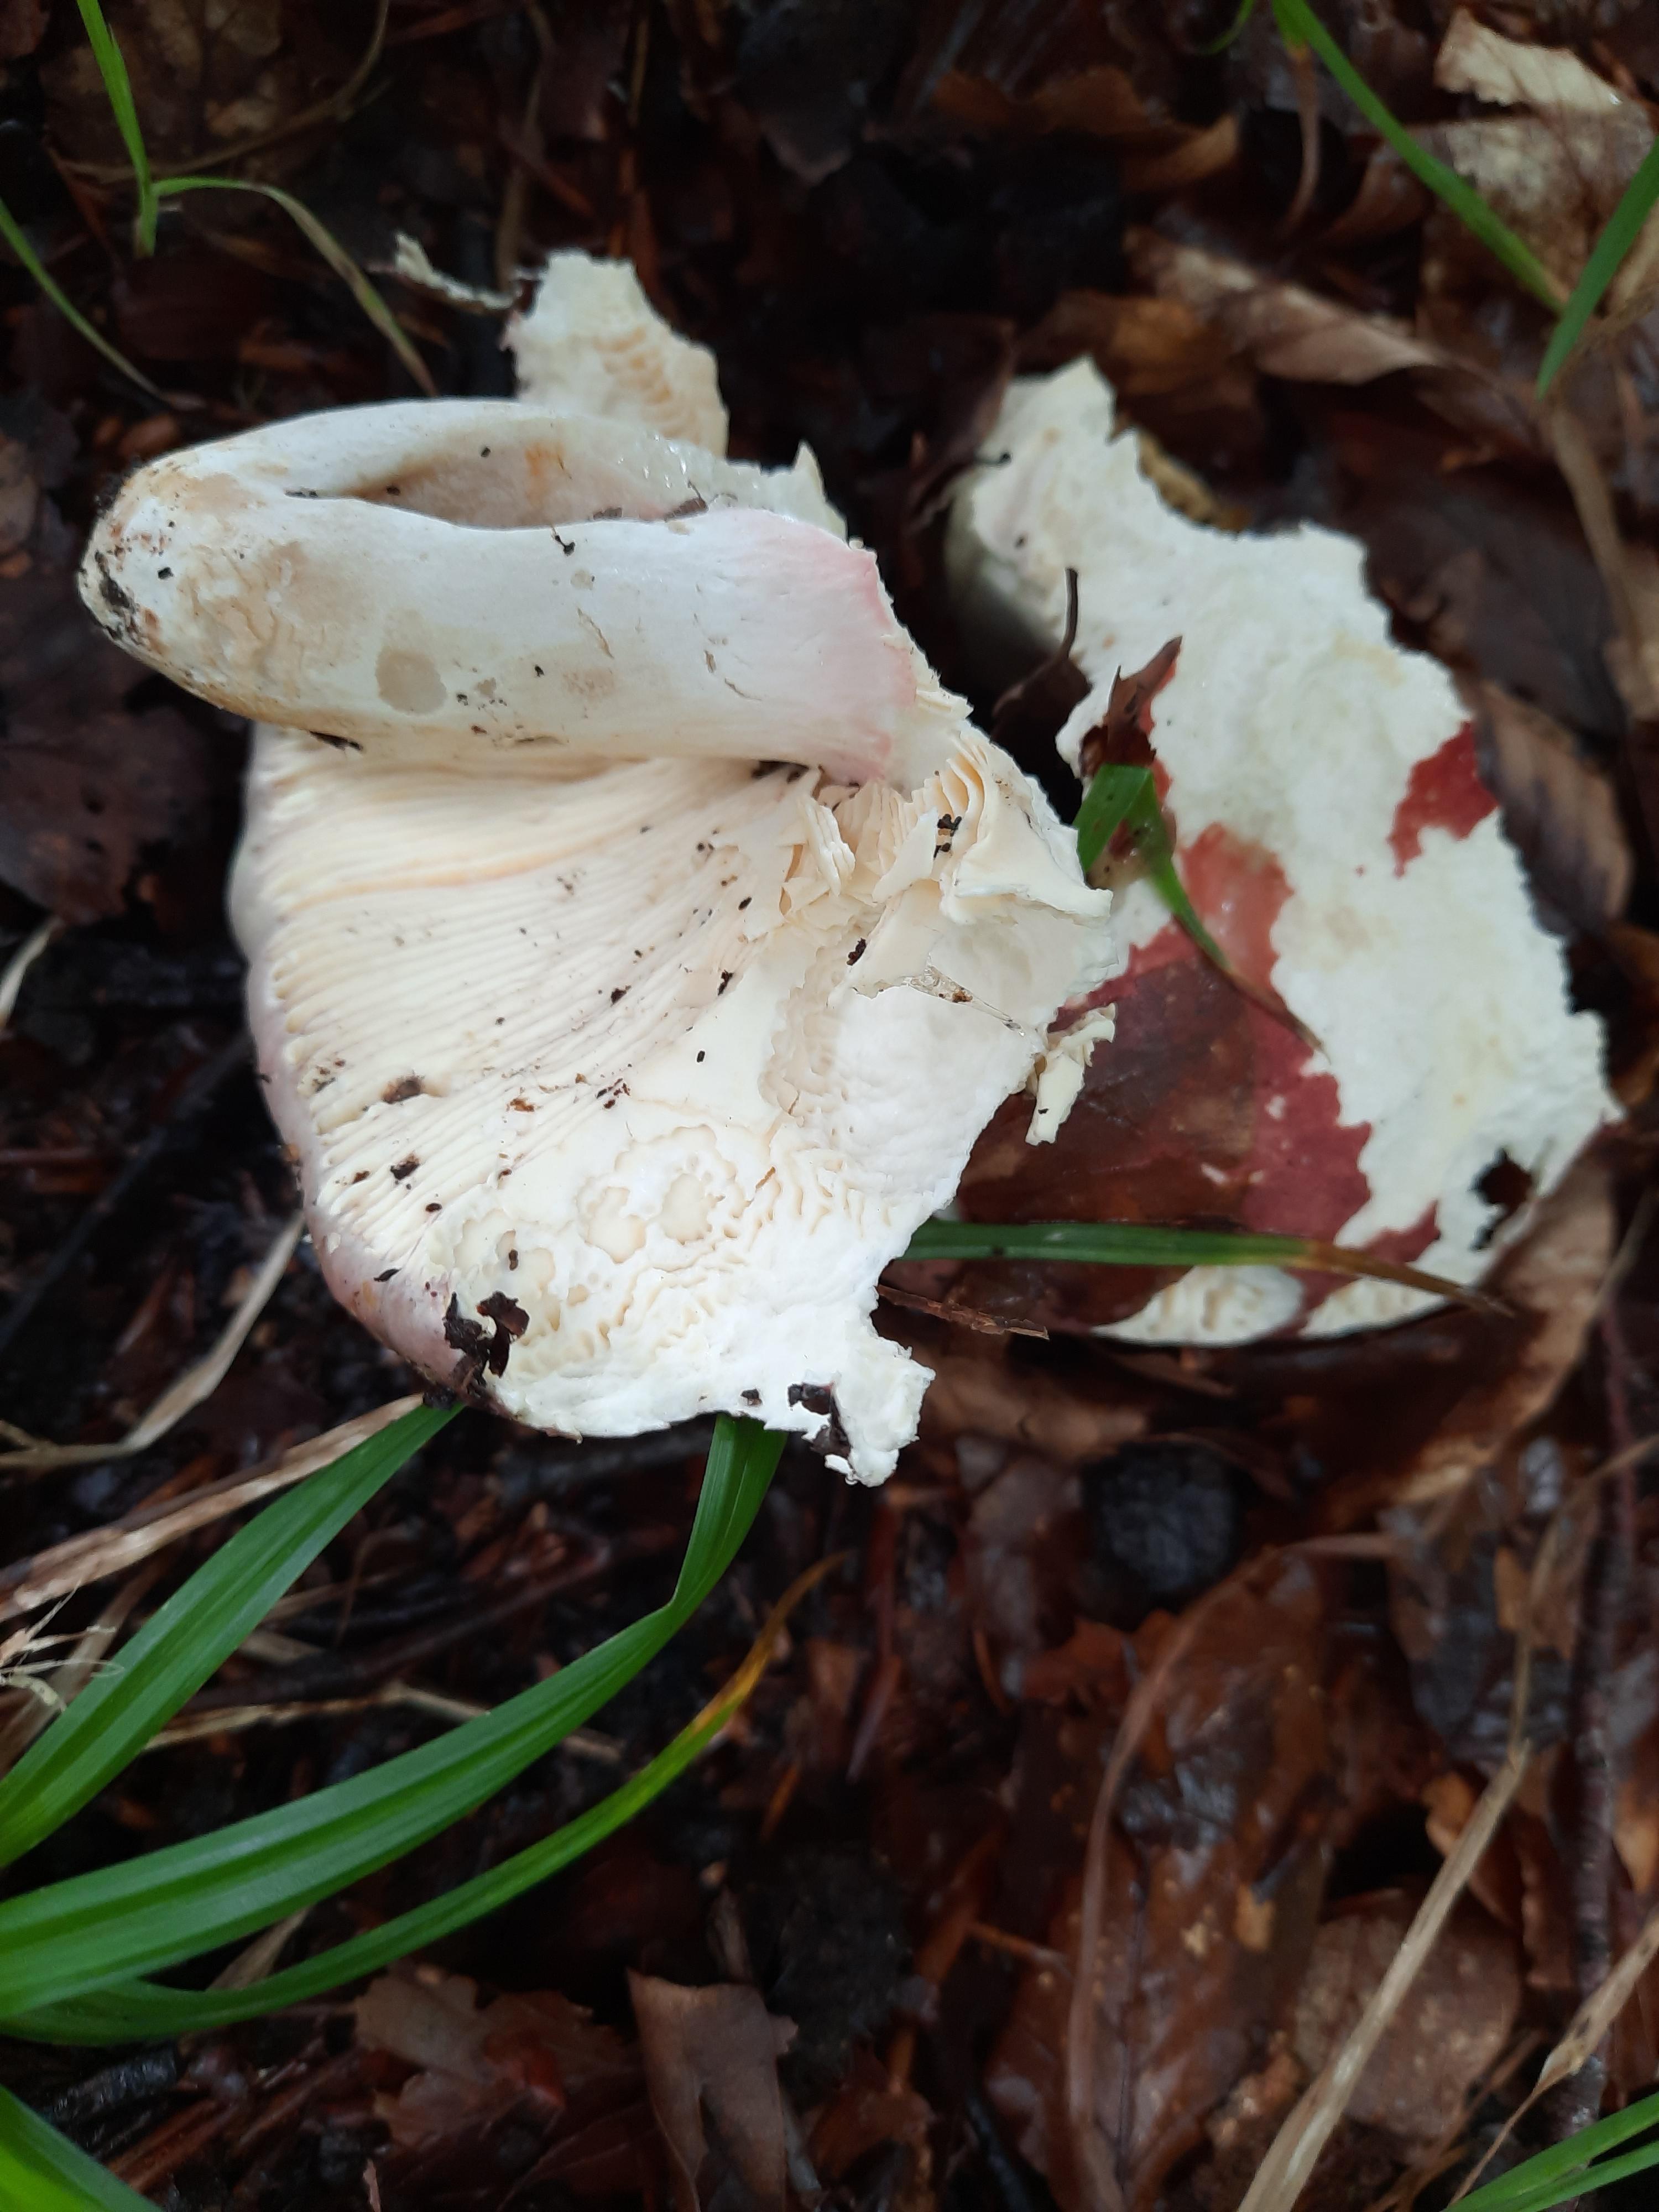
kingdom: Fungi
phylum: Basidiomycota
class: Agaricomycetes
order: Russulales
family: Russulaceae
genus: Russula
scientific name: Russula olivacea
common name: stor skørhat
